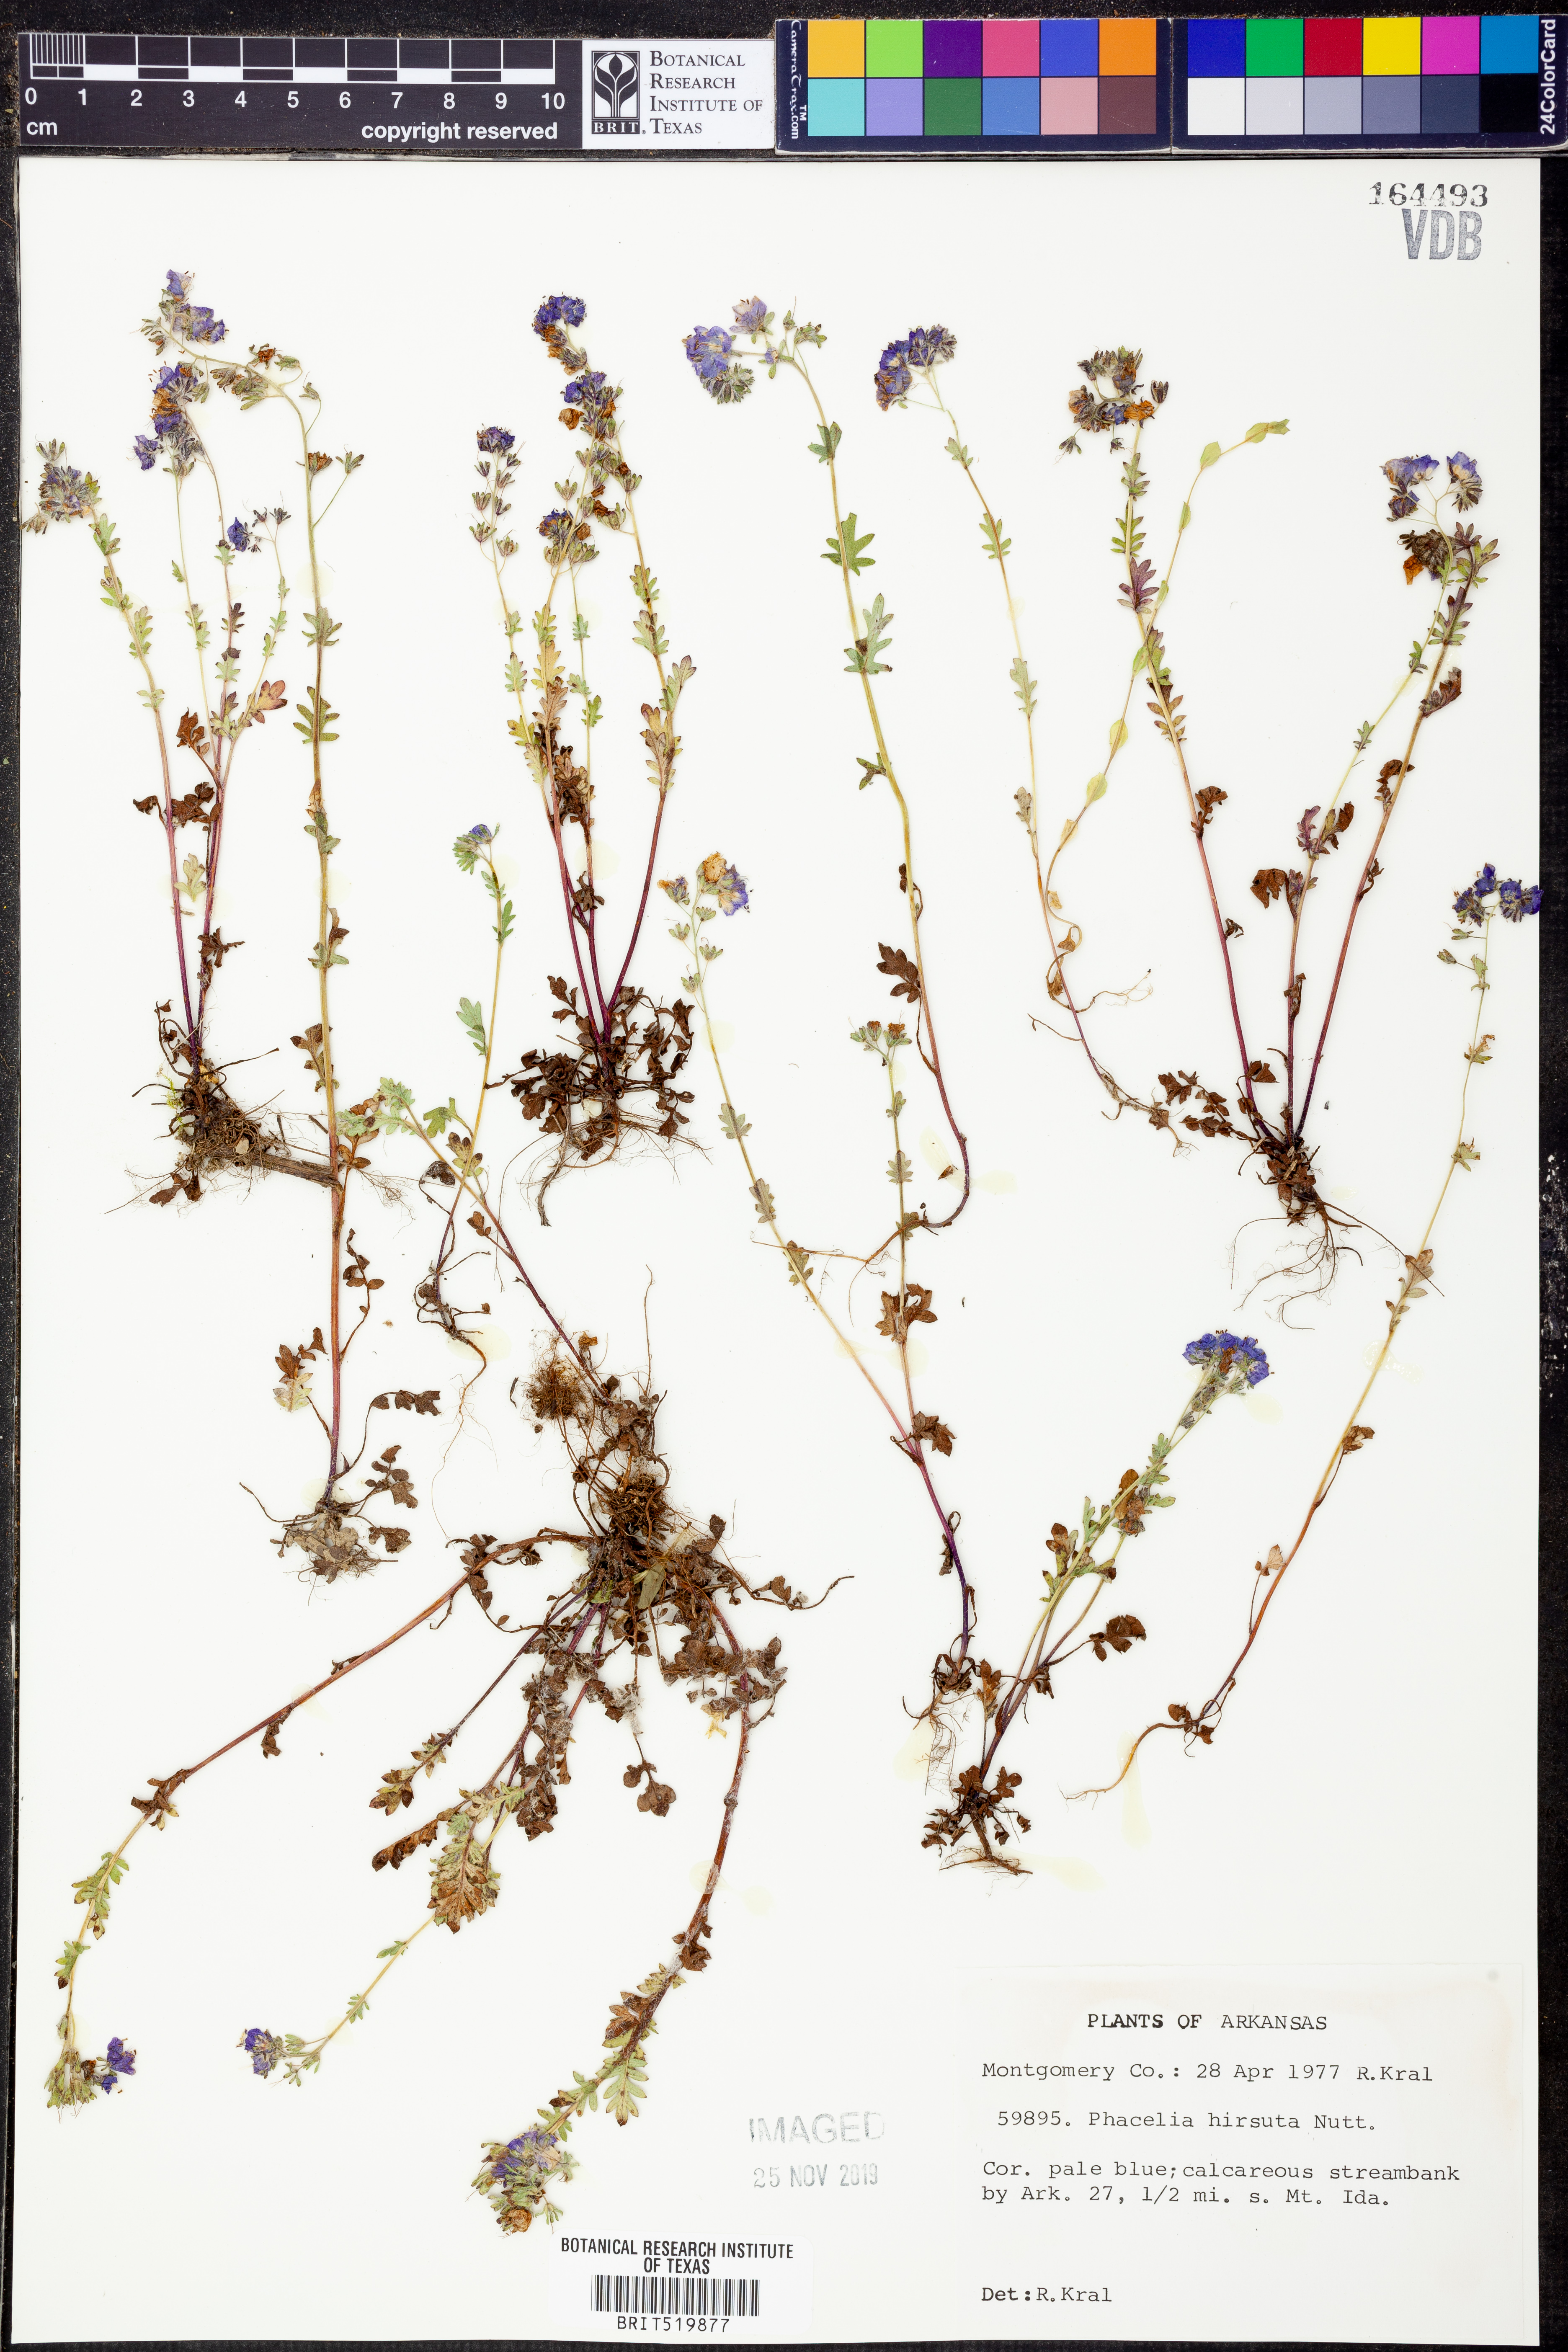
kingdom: Plantae
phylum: Tracheophyta
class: Magnoliopsida
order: Boraginales
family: Hydrophyllaceae
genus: Phacelia
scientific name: Phacelia hirsuta
